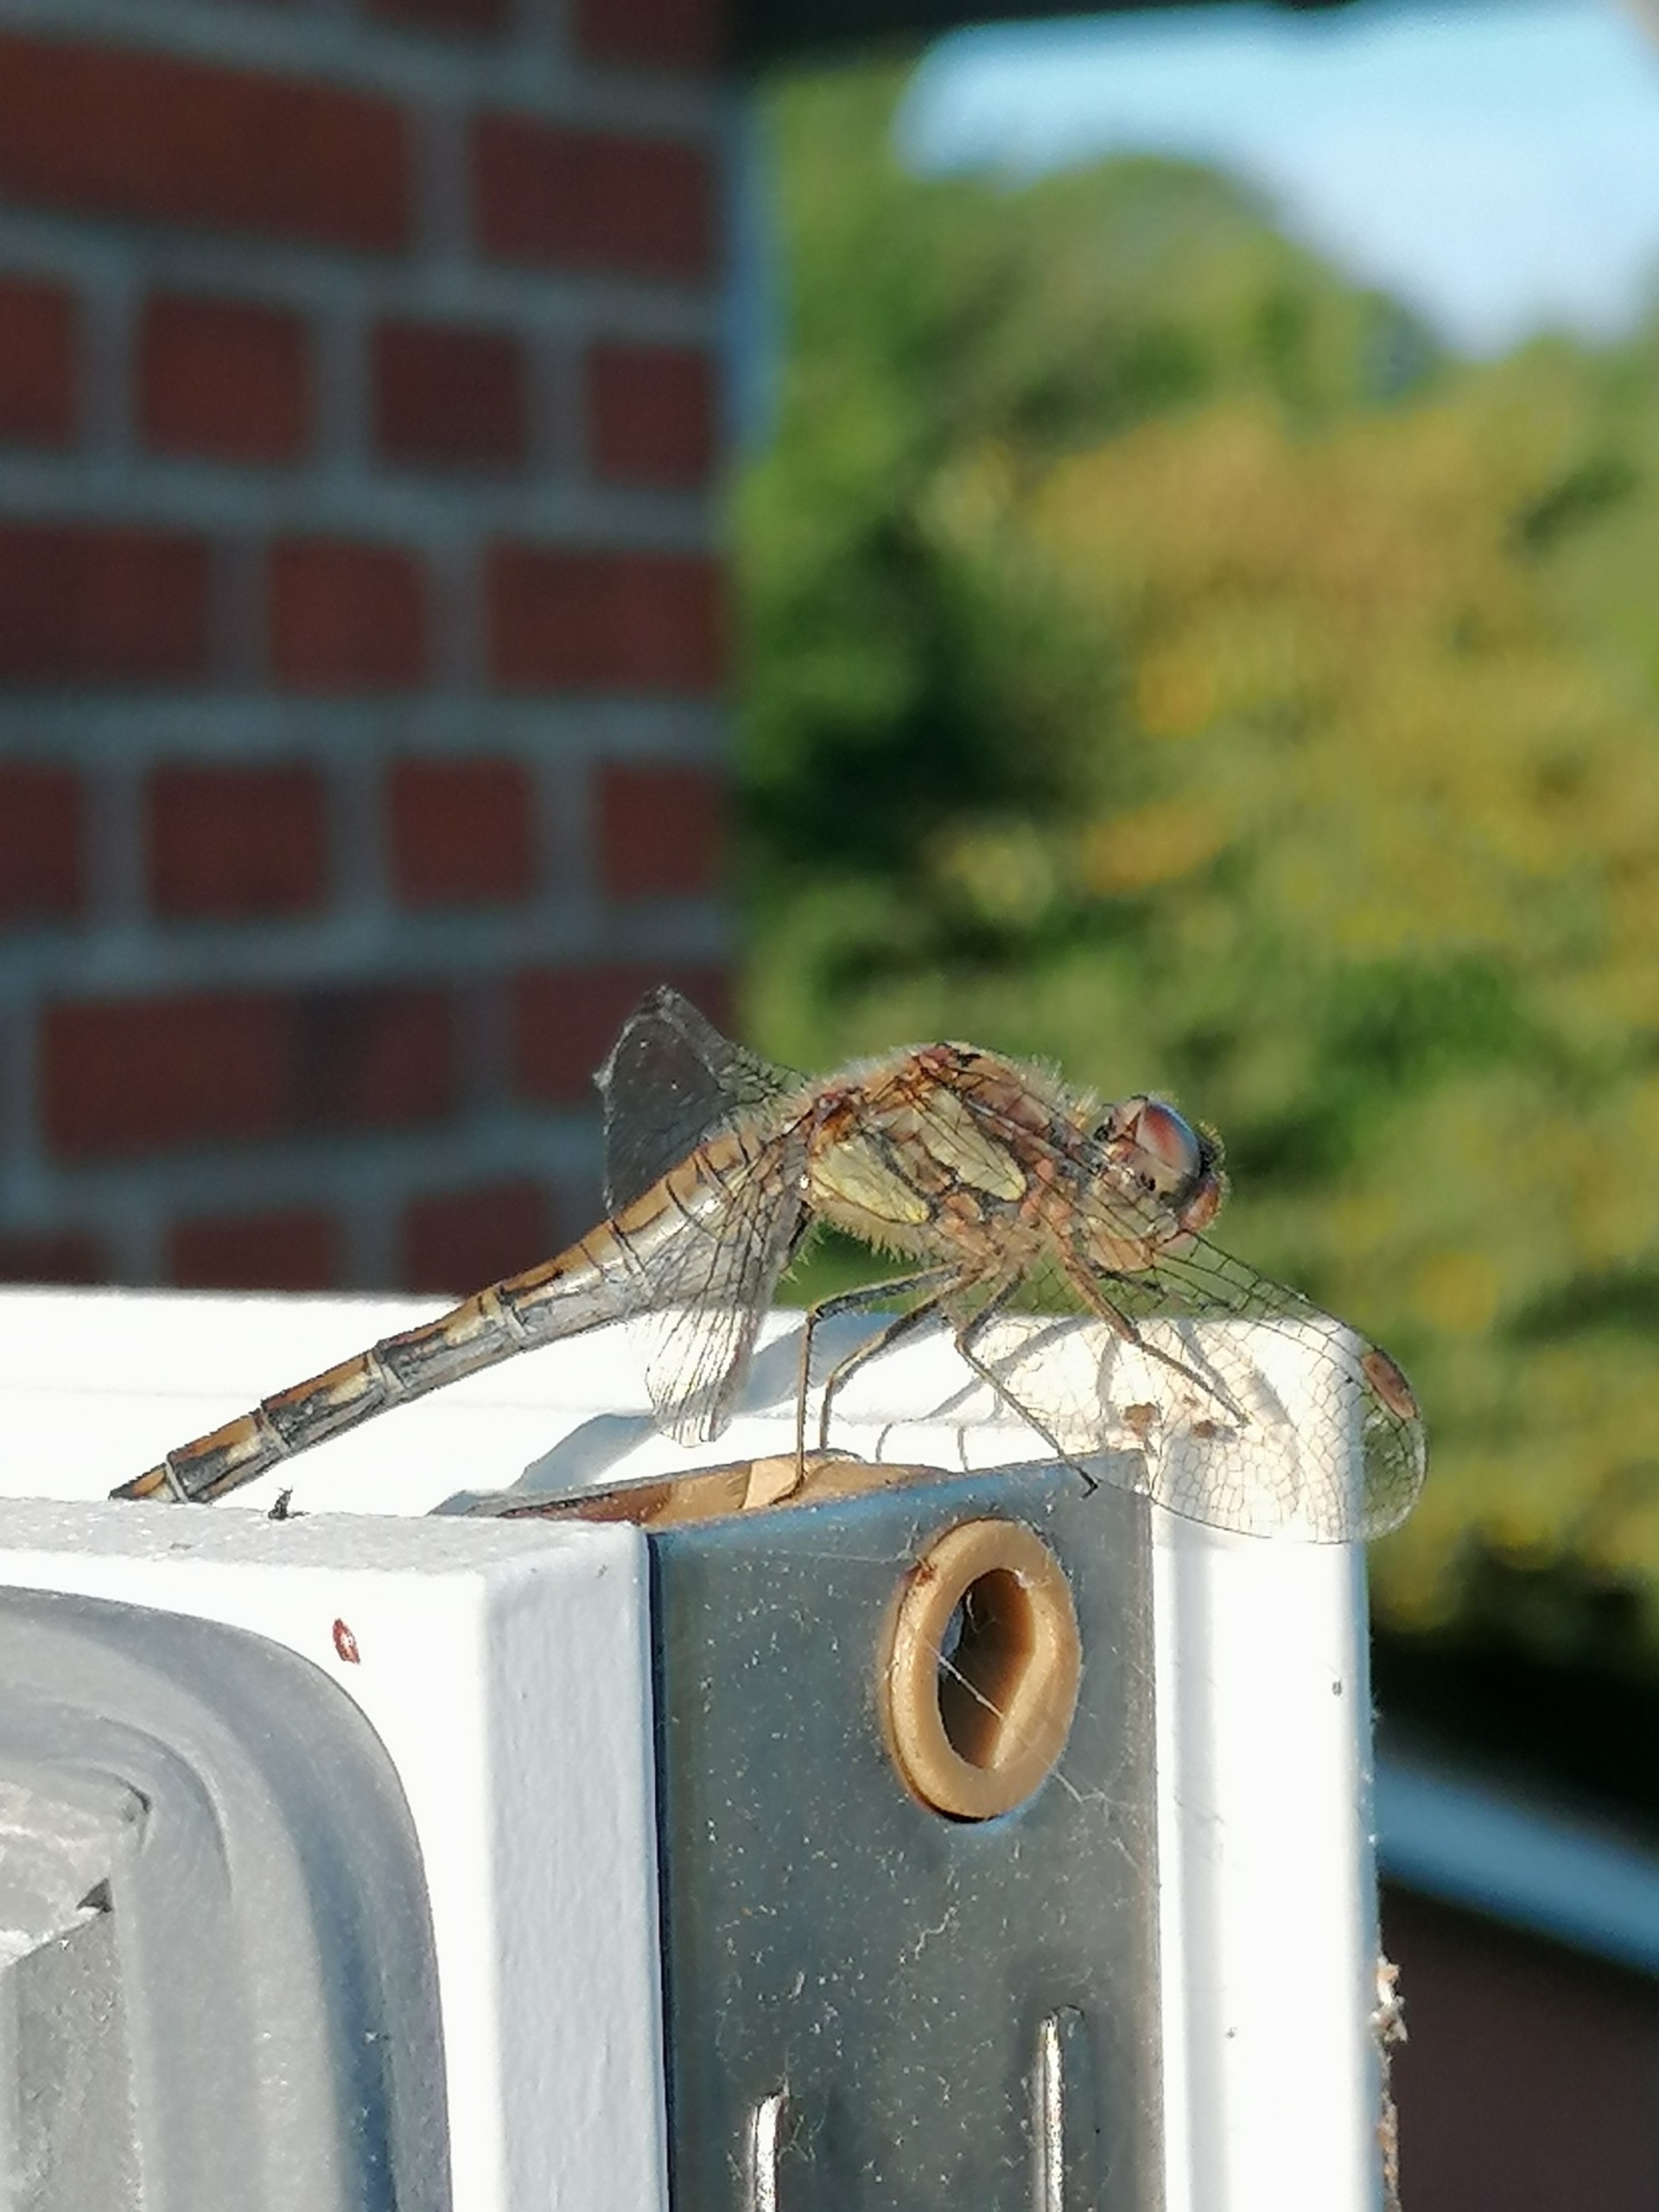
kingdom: Animalia
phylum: Arthropoda
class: Insecta
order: Odonata
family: Libellulidae
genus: Sympetrum
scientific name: Sympetrum striolatum
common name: Stor hedelibel
